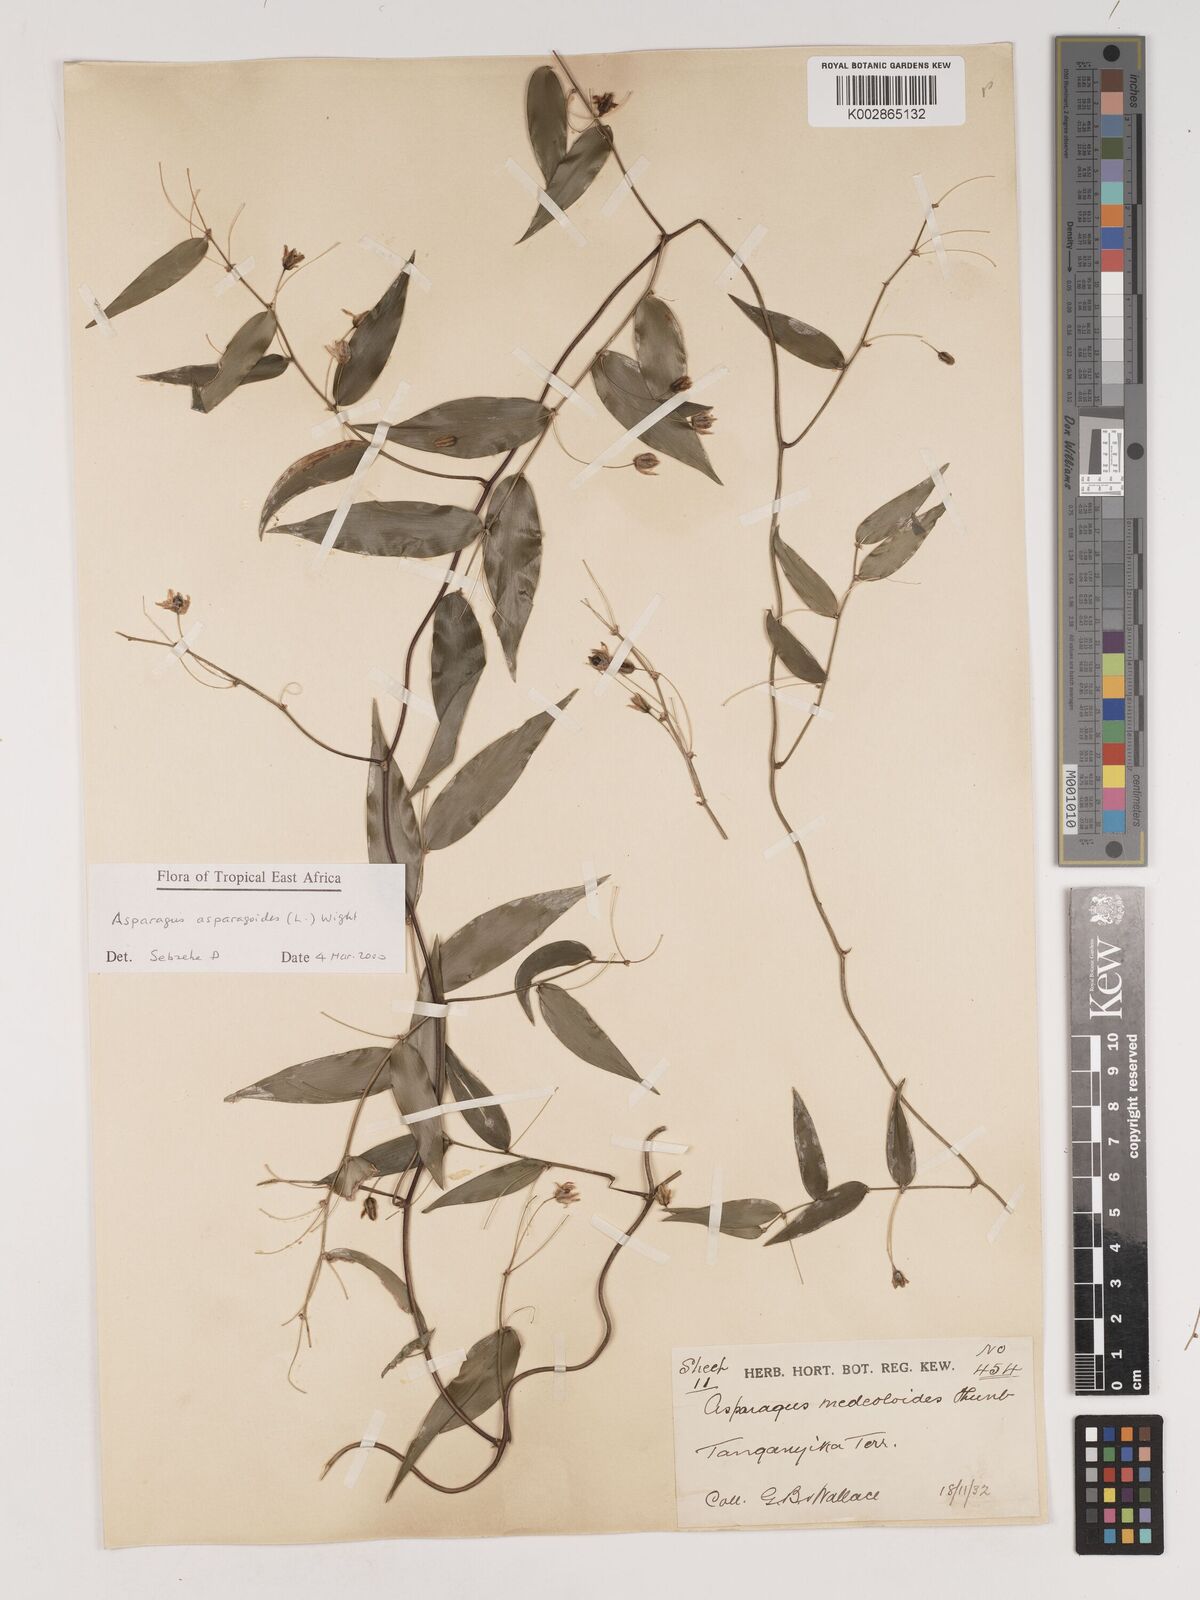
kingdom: Plantae
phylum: Tracheophyta
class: Liliopsida
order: Asparagales
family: Asparagaceae
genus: Asparagus
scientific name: Asparagus asparagoides
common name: African asparagus fern
